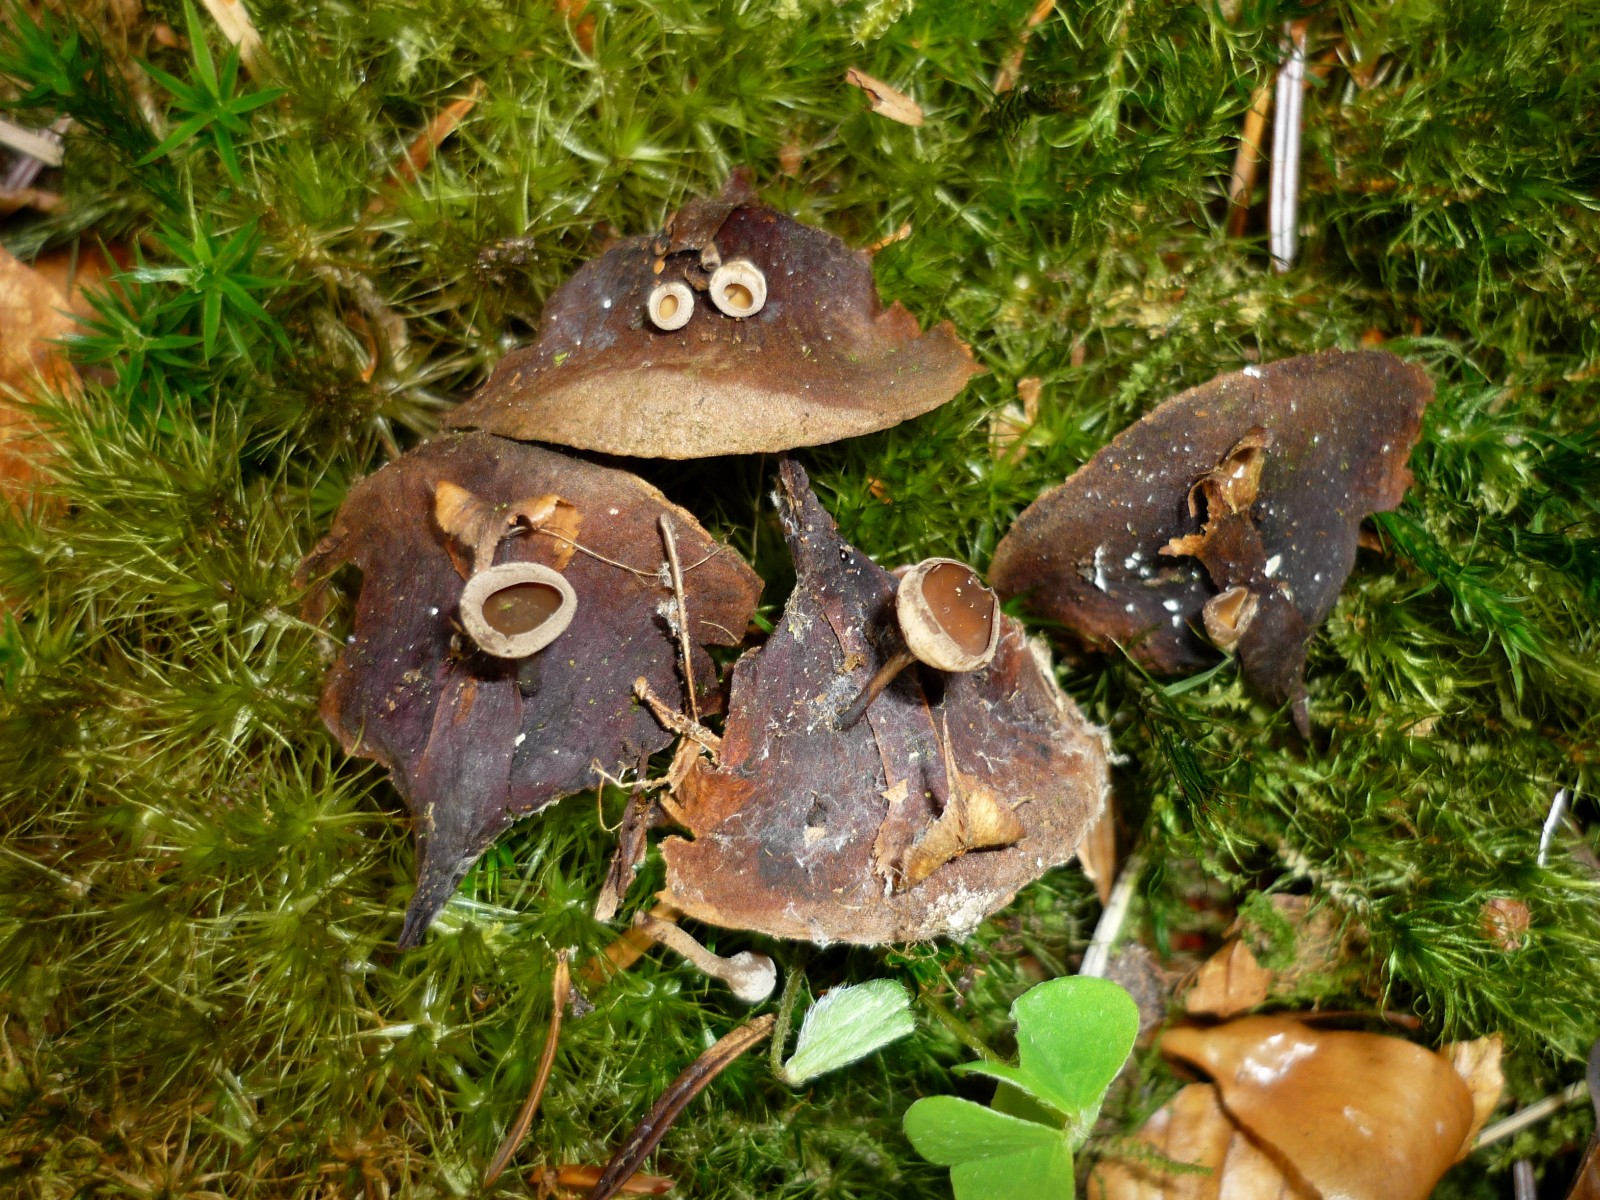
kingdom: Fungi
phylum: Ascomycota
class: Leotiomycetes
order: Helotiales
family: Sclerotiniaceae
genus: Ciboria
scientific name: Ciboria rufofusca
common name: kogleskæl-knoldskive
